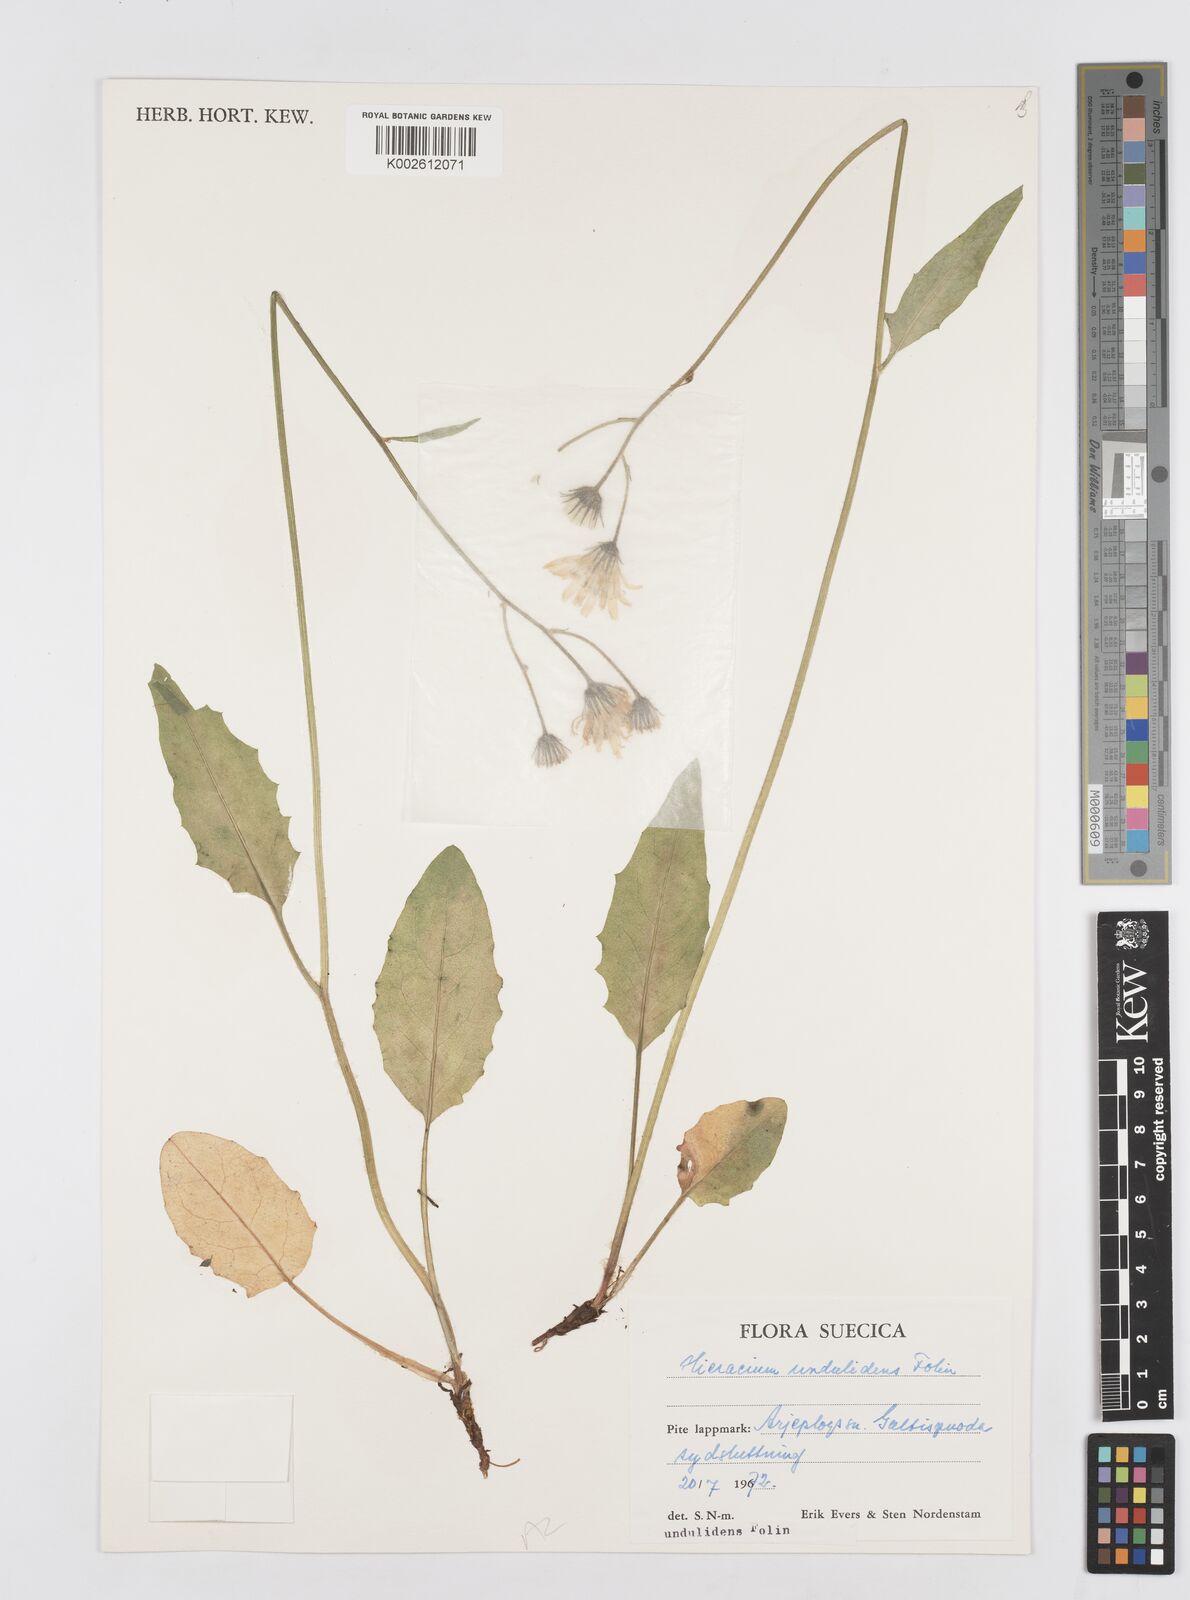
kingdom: Plantae
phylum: Tracheophyta
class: Magnoliopsida
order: Asterales
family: Asteraceae
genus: Hieracium
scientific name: Hieracium undulidens
